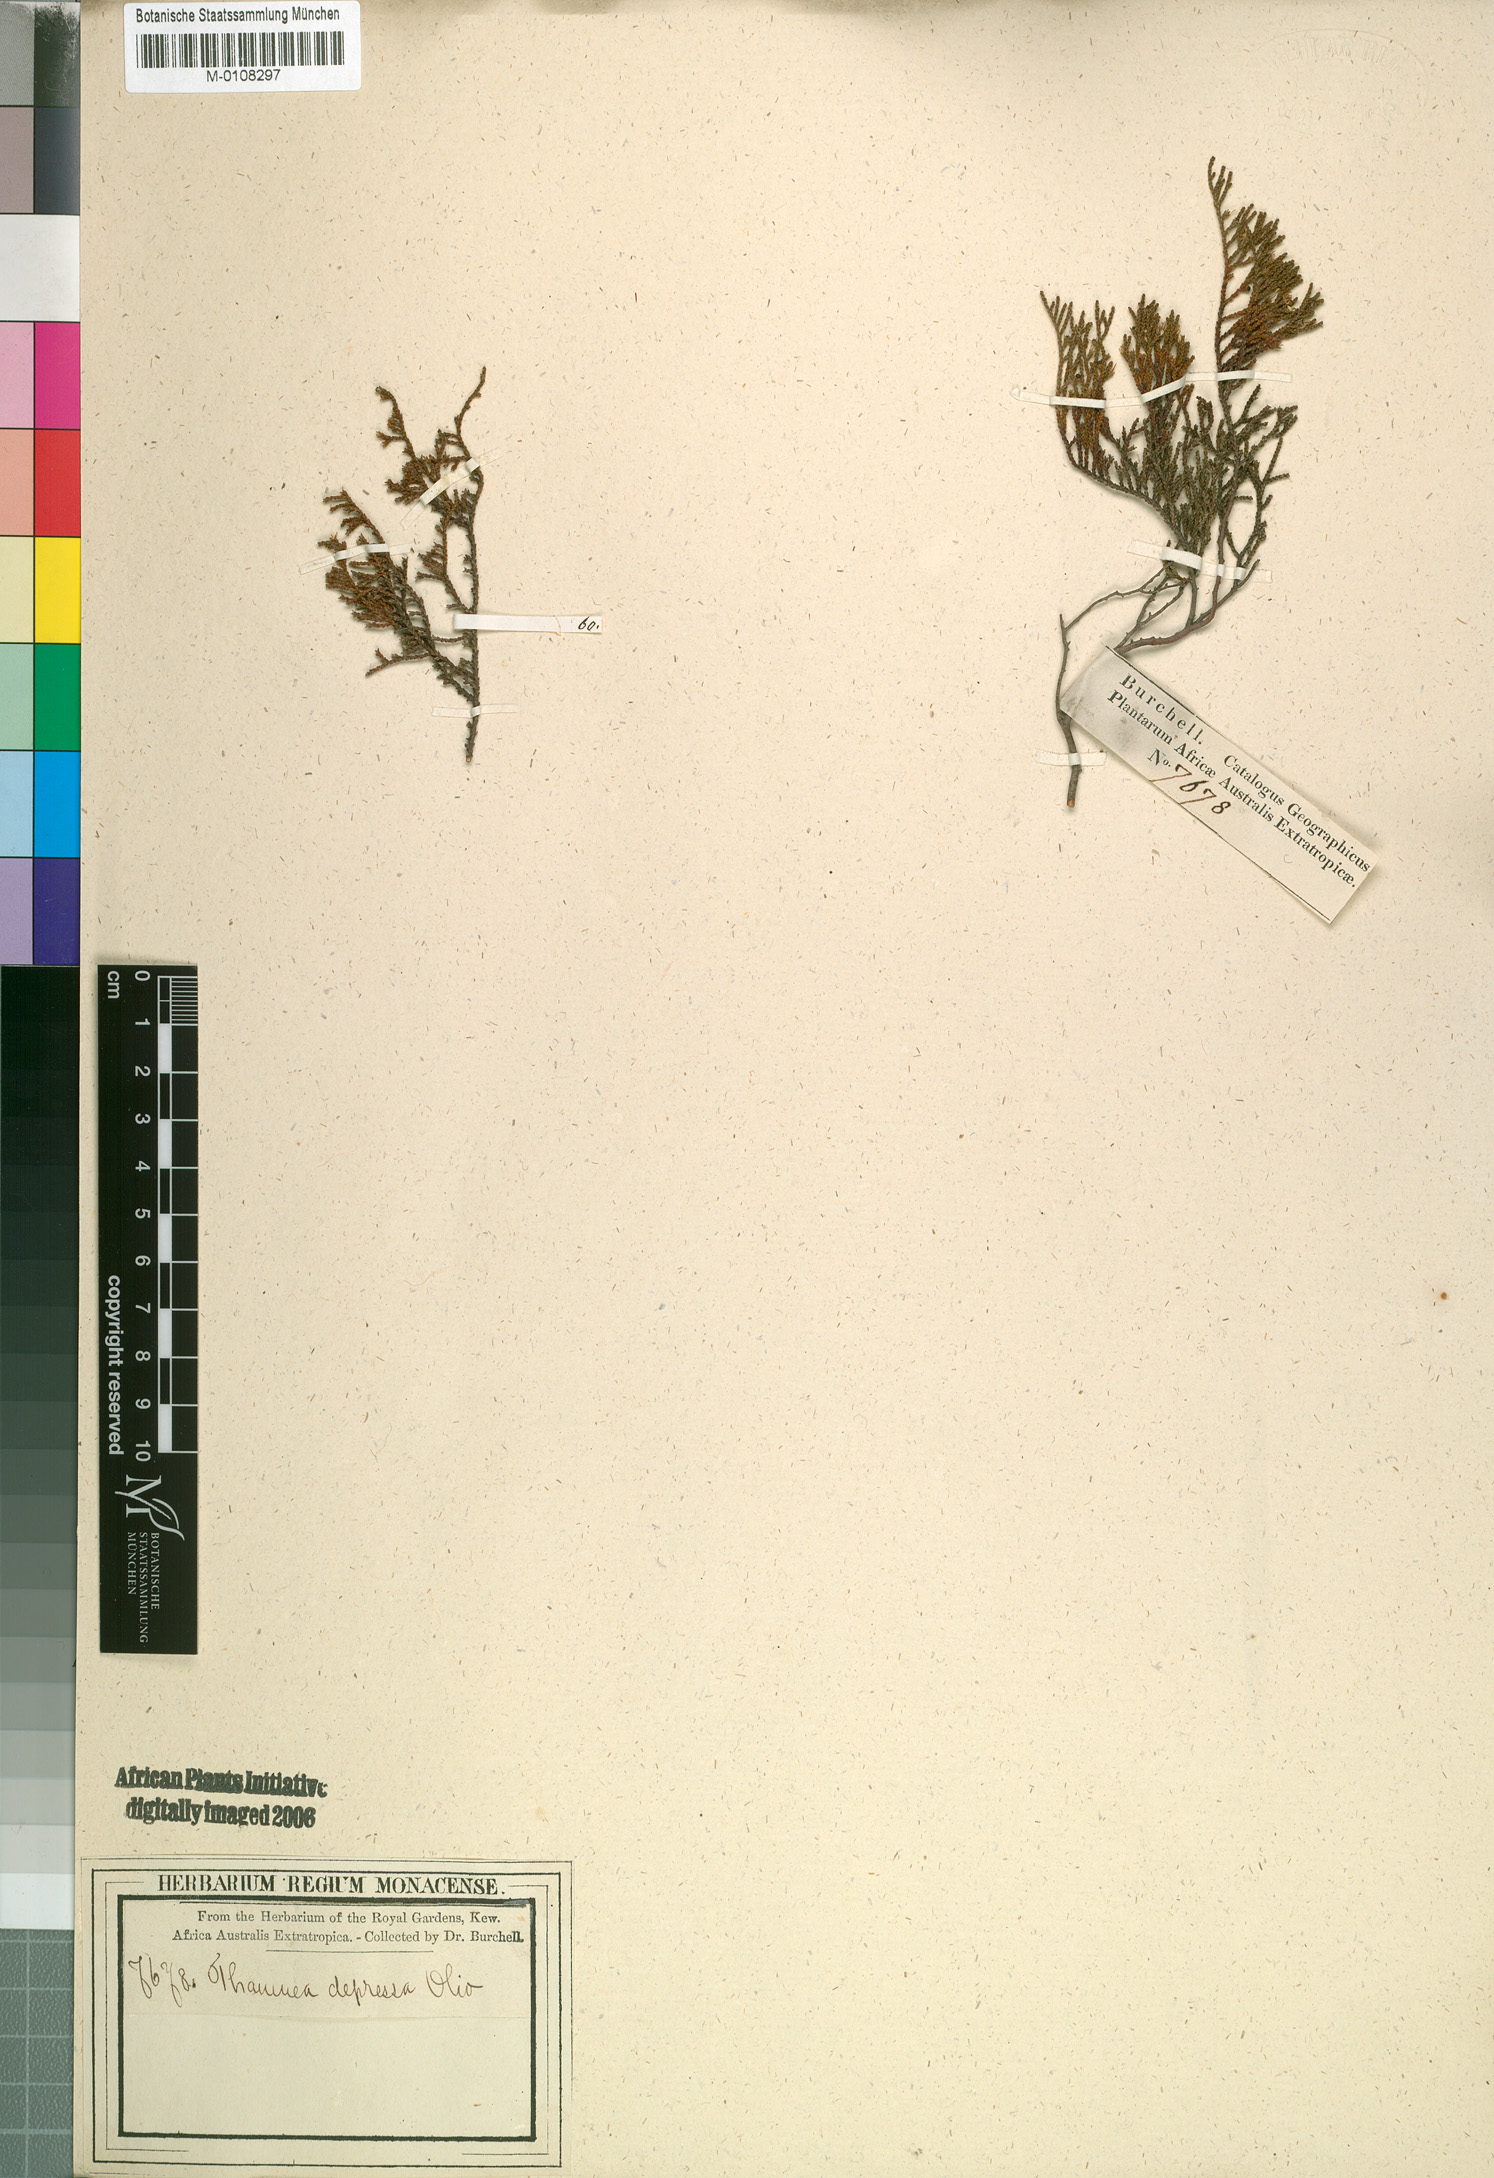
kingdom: Plantae
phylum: Tracheophyta
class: Magnoliopsida
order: Bruniales
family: Bruniaceae
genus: Thamnea
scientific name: Thamnea depressa
